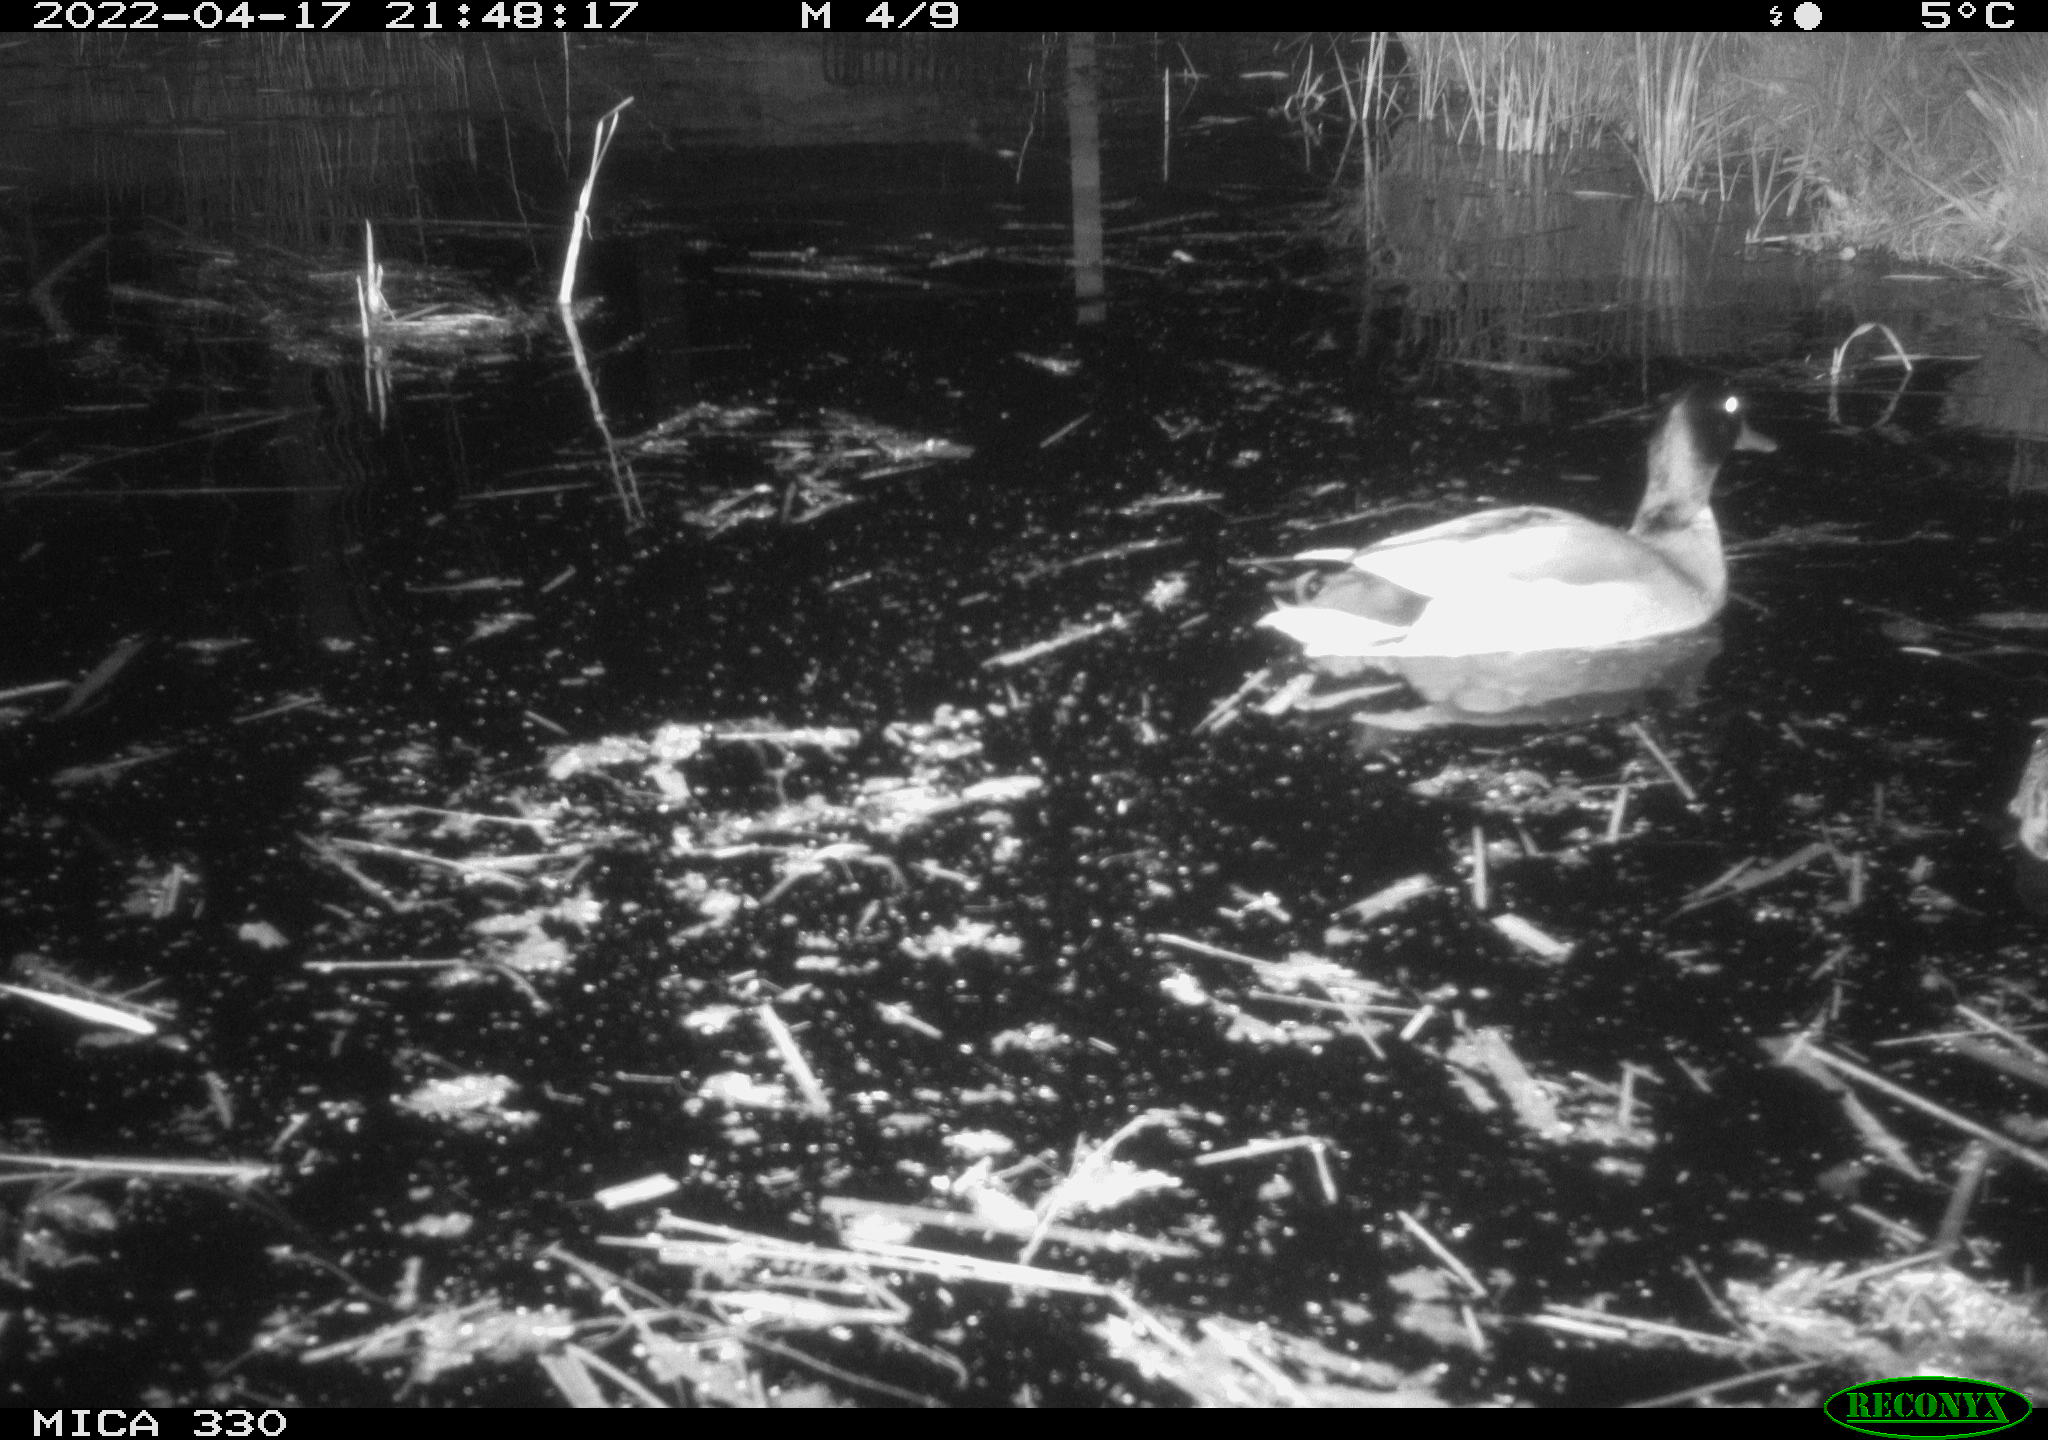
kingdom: Animalia
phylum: Chordata
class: Aves
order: Anseriformes
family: Anatidae
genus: Anas
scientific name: Anas platyrhynchos
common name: Mallard
